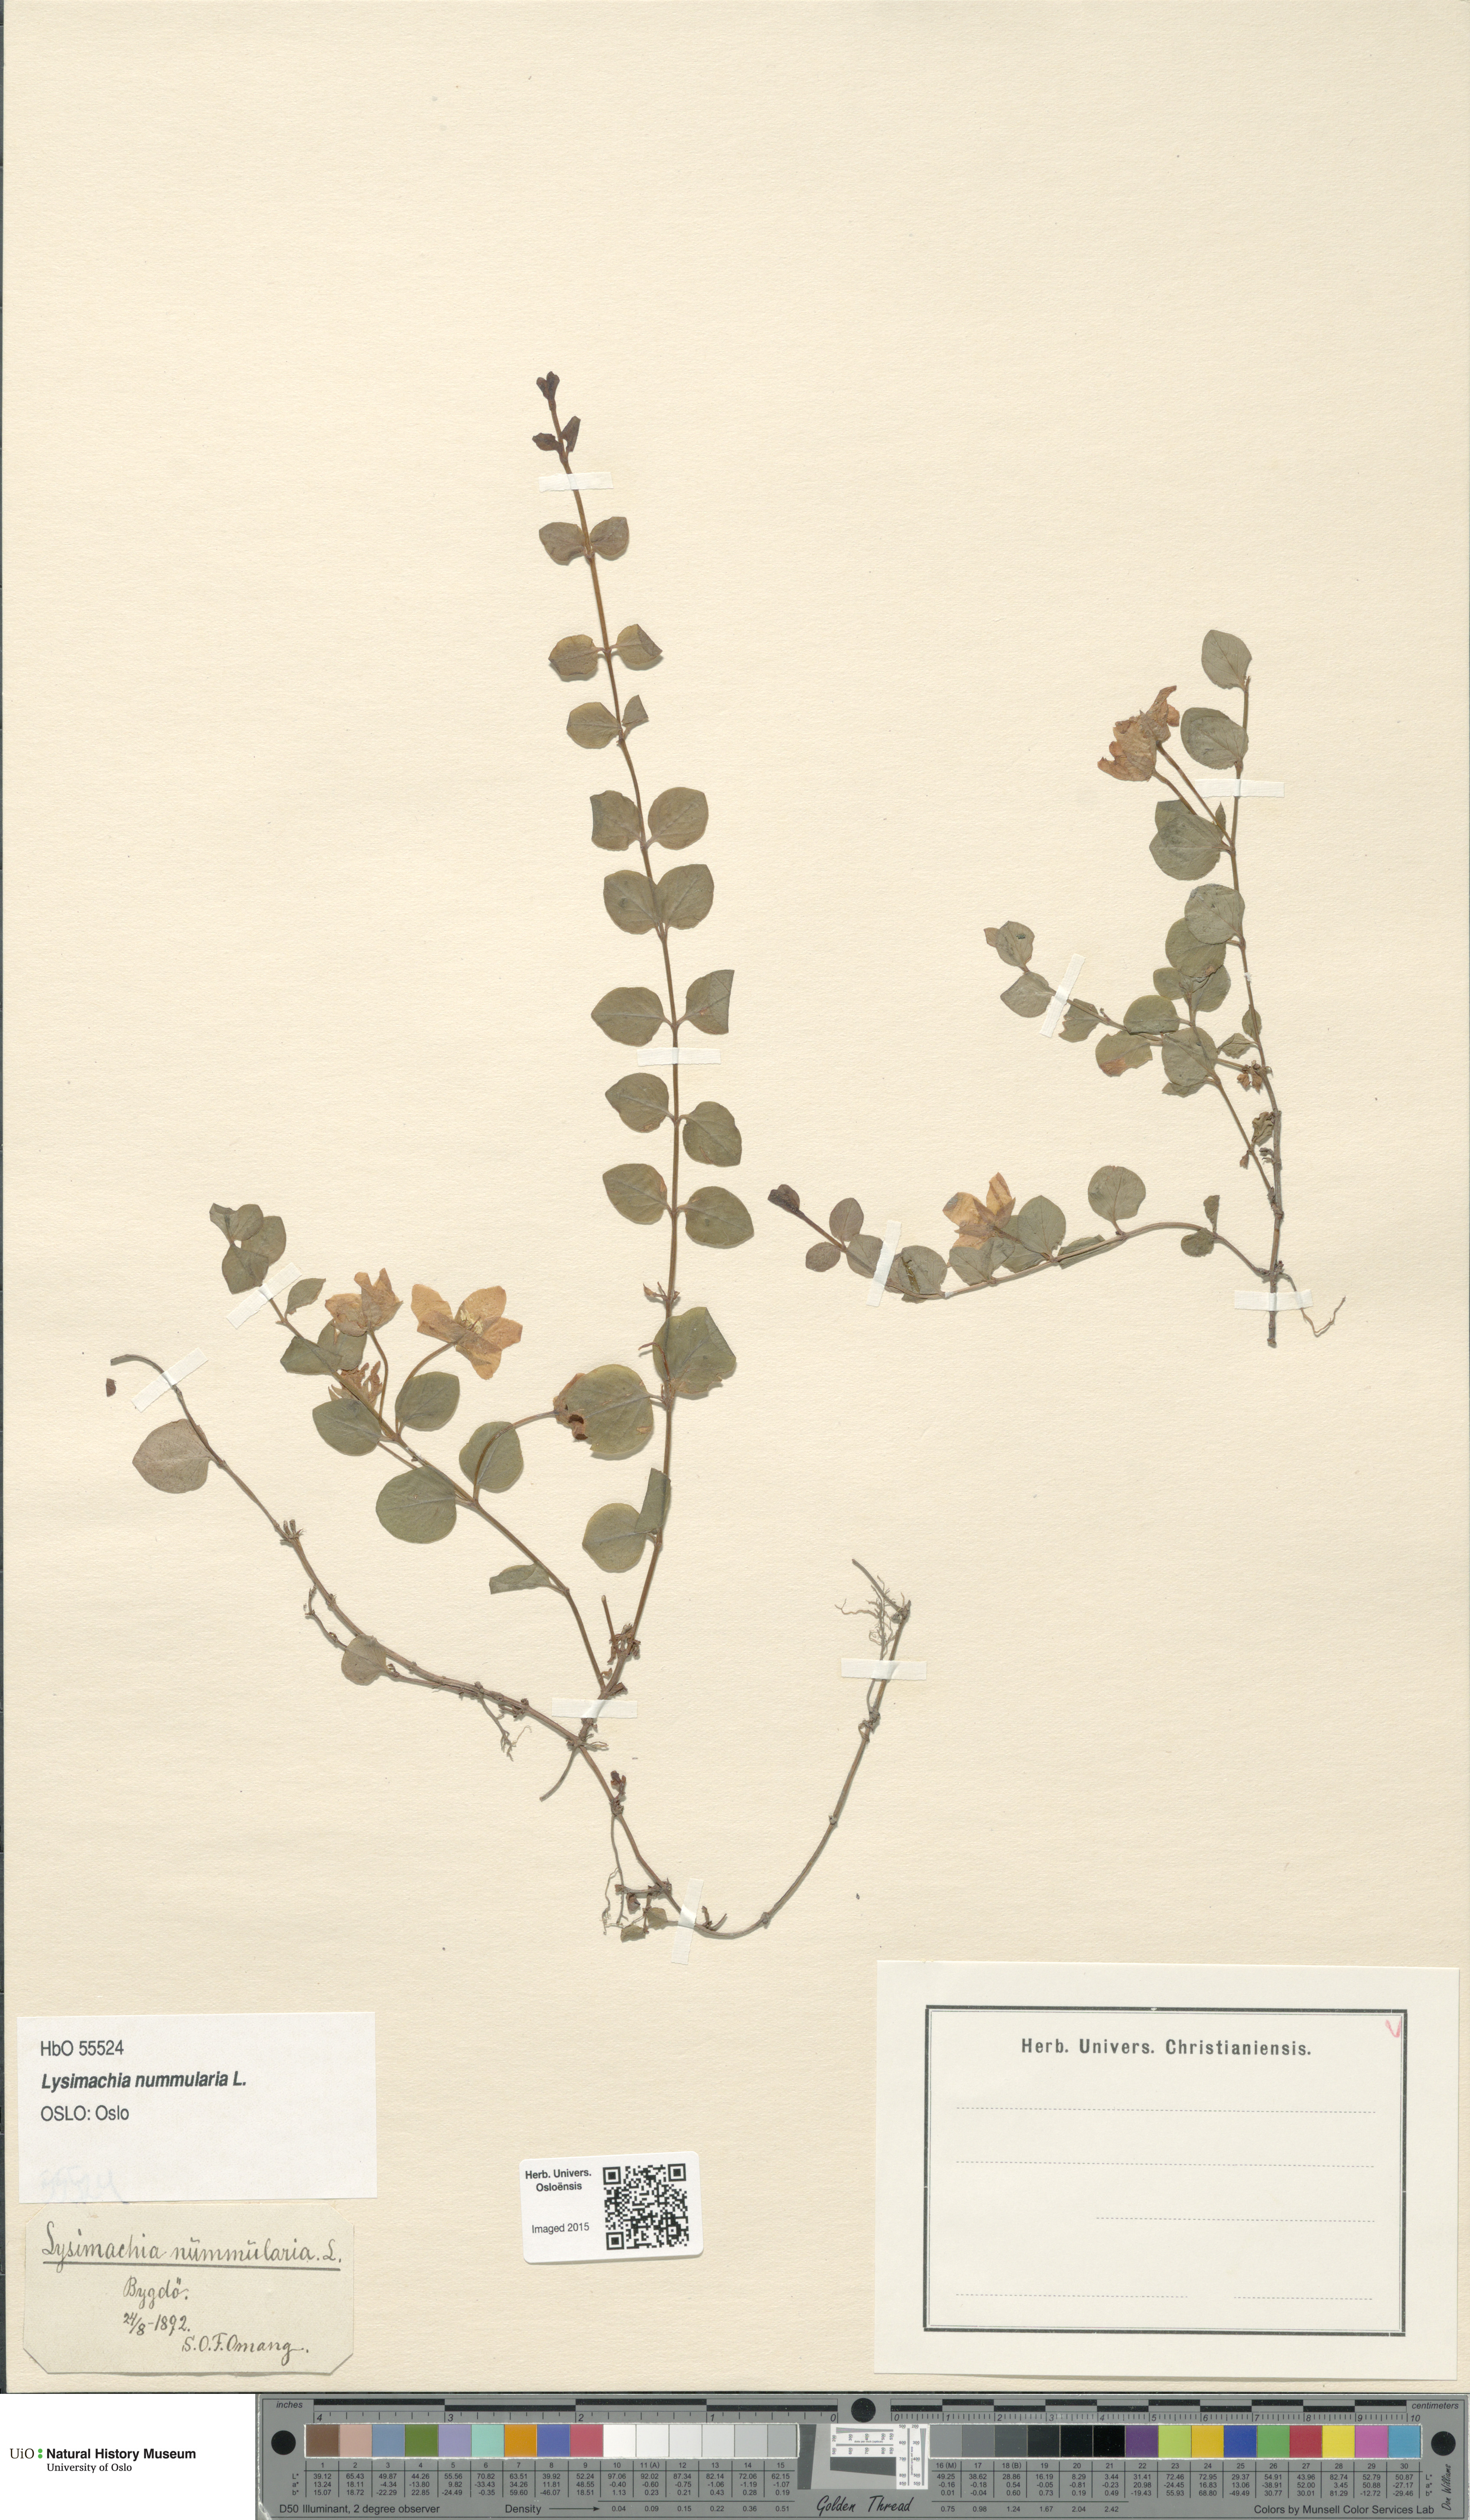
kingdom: Plantae
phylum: Tracheophyta
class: Magnoliopsida
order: Ericales
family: Primulaceae
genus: Lysimachia
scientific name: Lysimachia nummularia
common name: Moneywort
